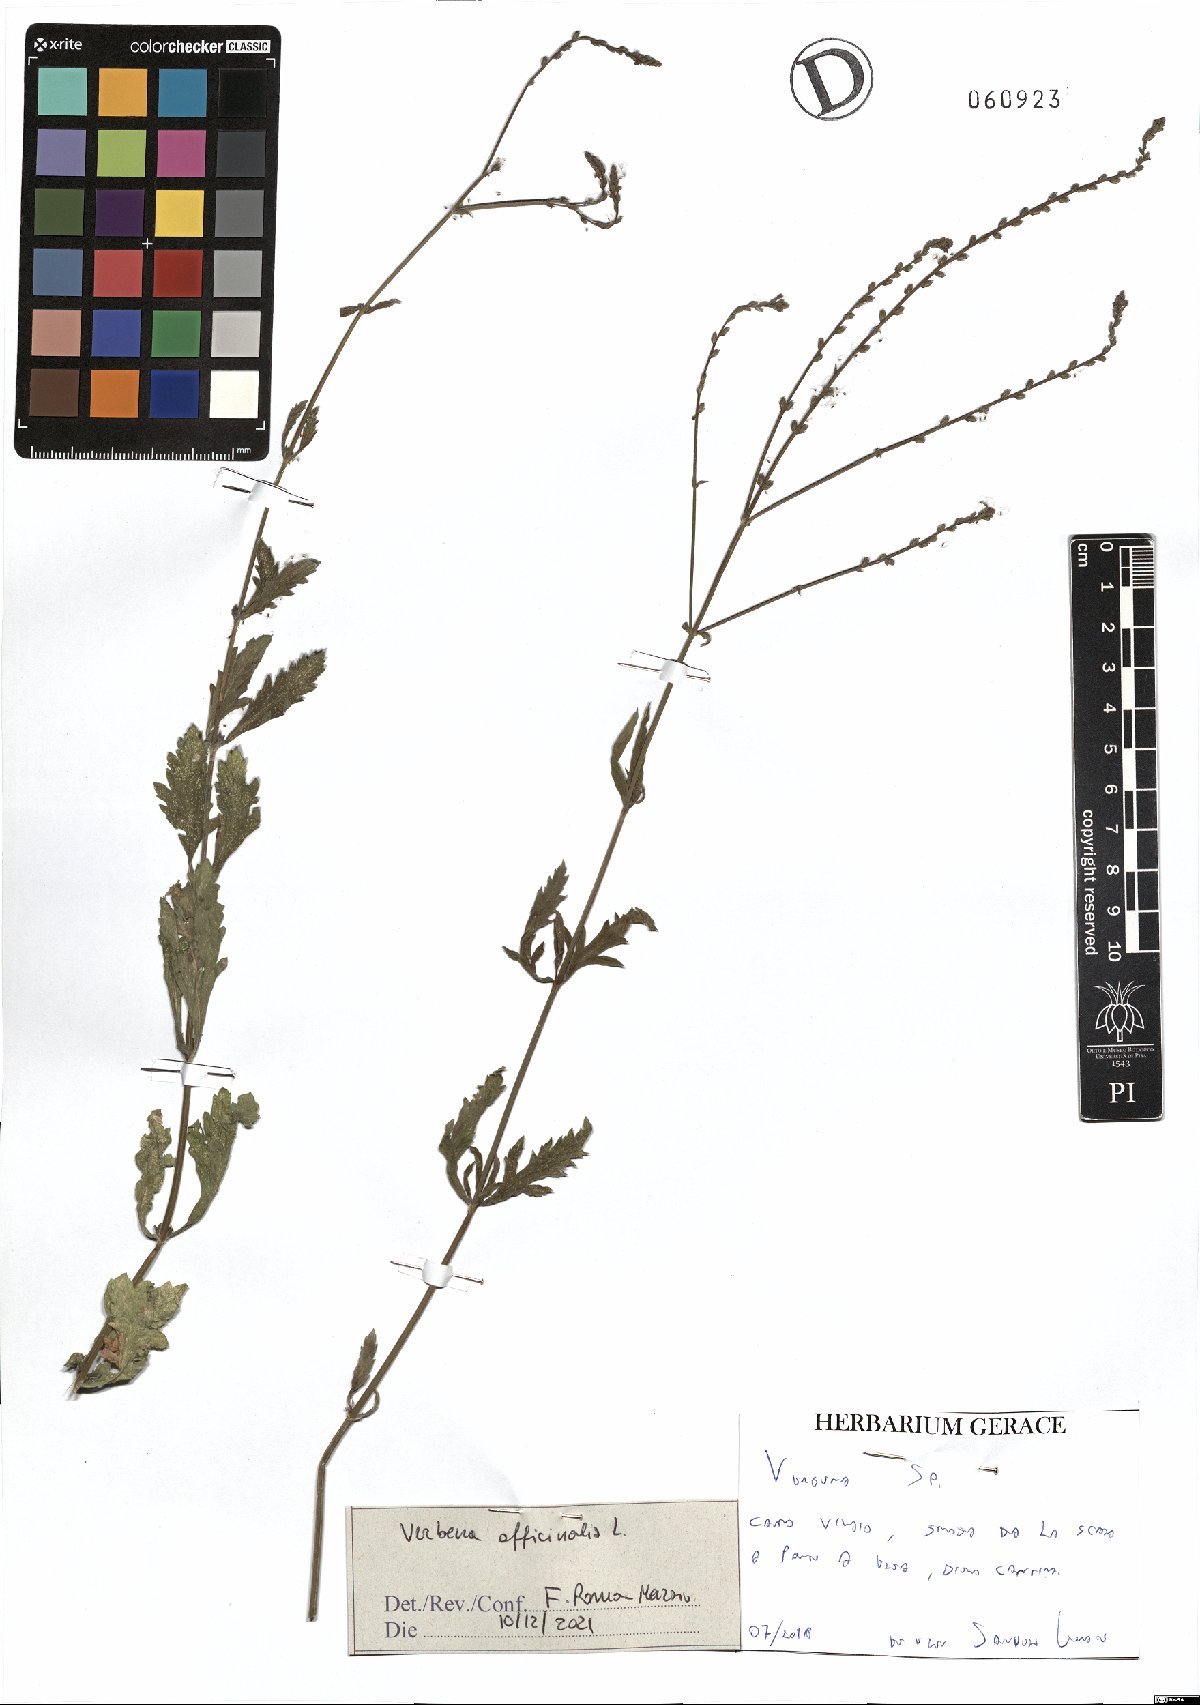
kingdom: Plantae
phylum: Tracheophyta
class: Magnoliopsida
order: Lamiales
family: Verbenaceae
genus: Verbena
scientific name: Verbena officinalis
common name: Vervain
